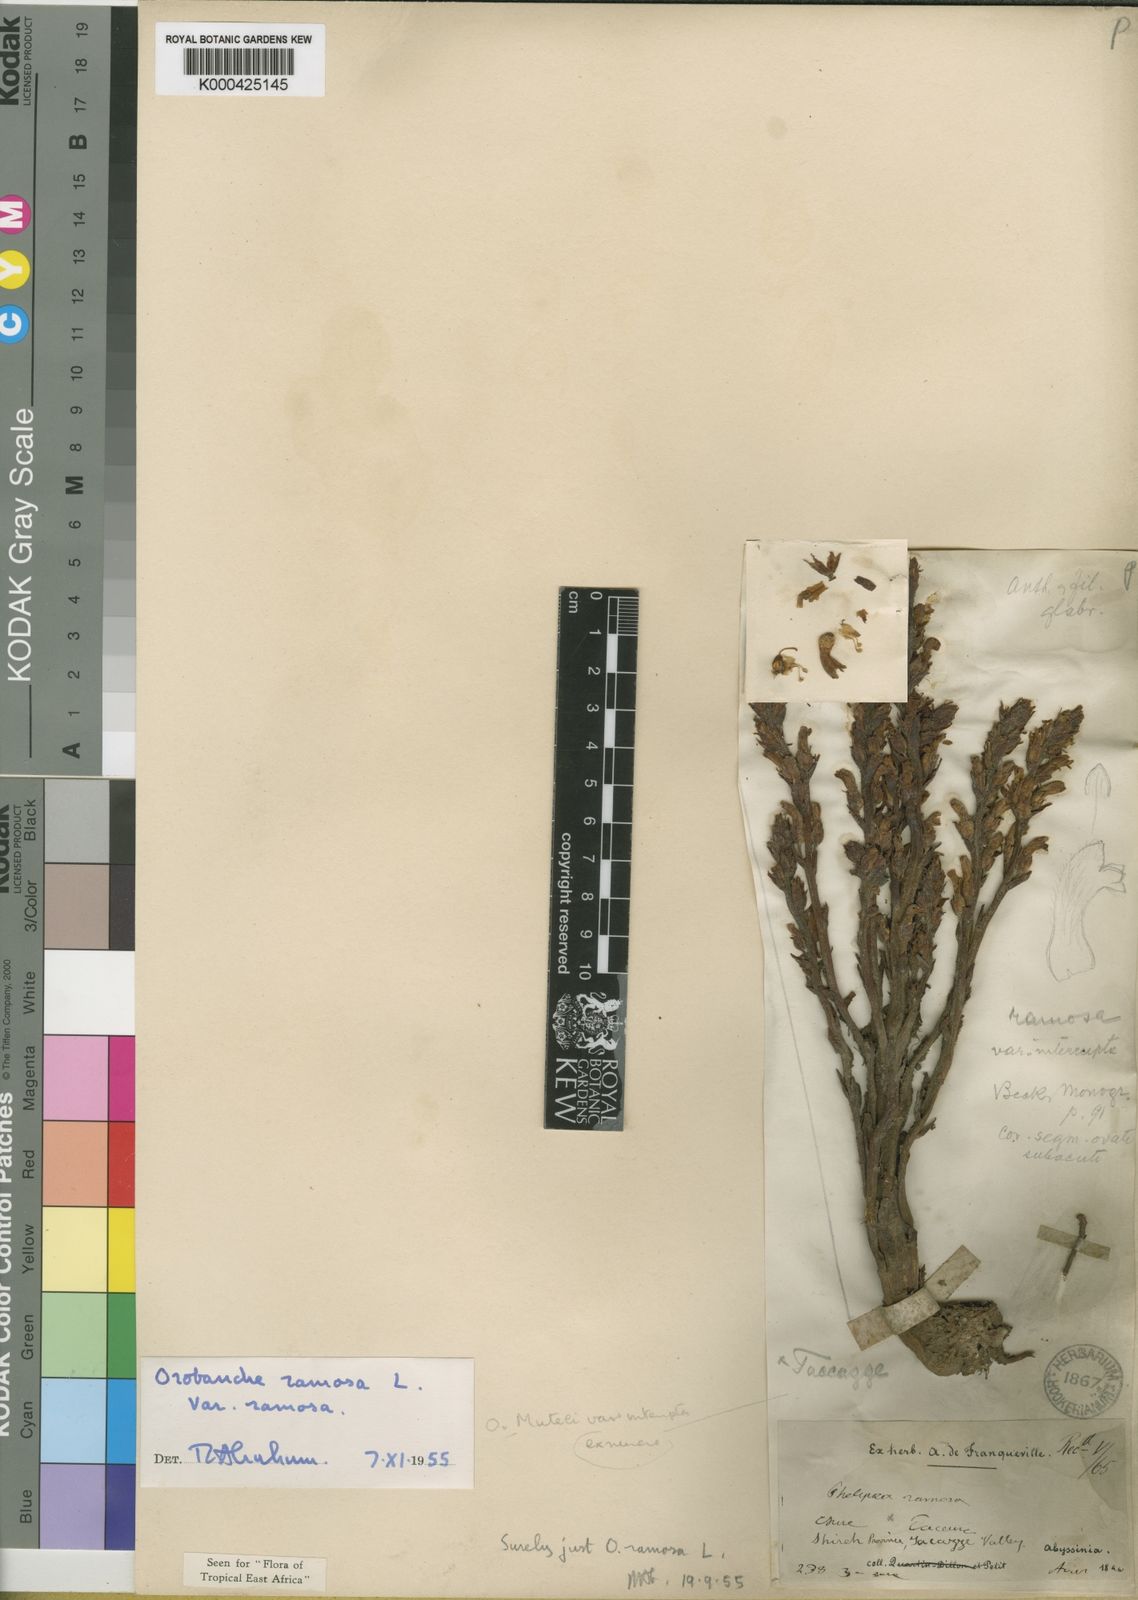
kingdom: Plantae
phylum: Tracheophyta
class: Magnoliopsida
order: Lamiales
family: Orobanchaceae
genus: Phelipanche
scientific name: Phelipanche ramosa
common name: Branched broomrape
